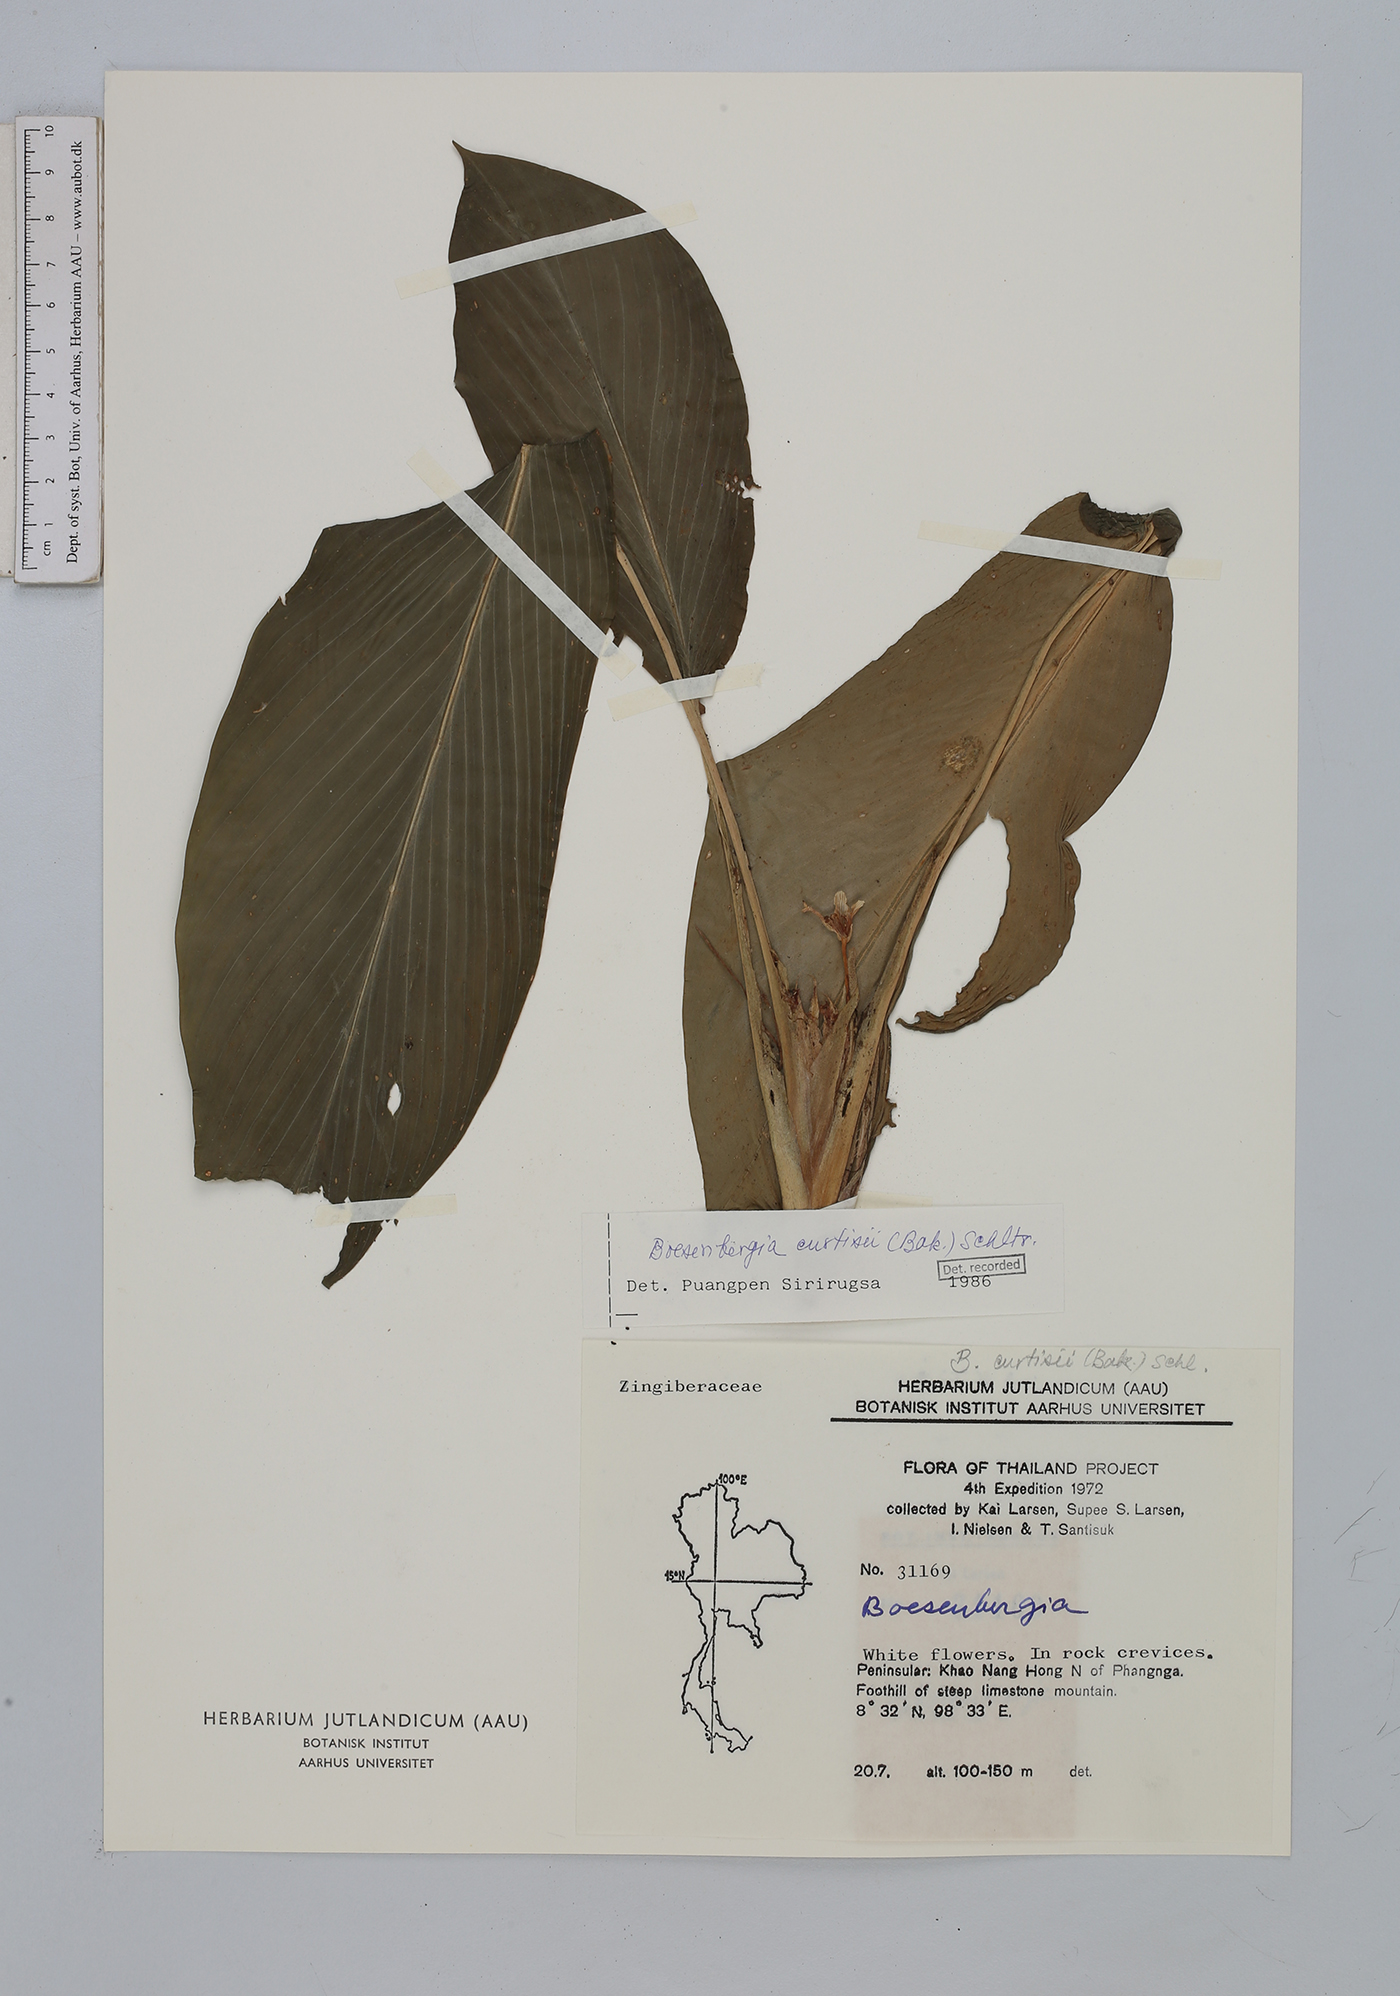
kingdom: Plantae
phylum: Tracheophyta
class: Liliopsida
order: Zingiberales
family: Zingiberaceae
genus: Boesenbergia
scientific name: Boesenbergia curtisii
